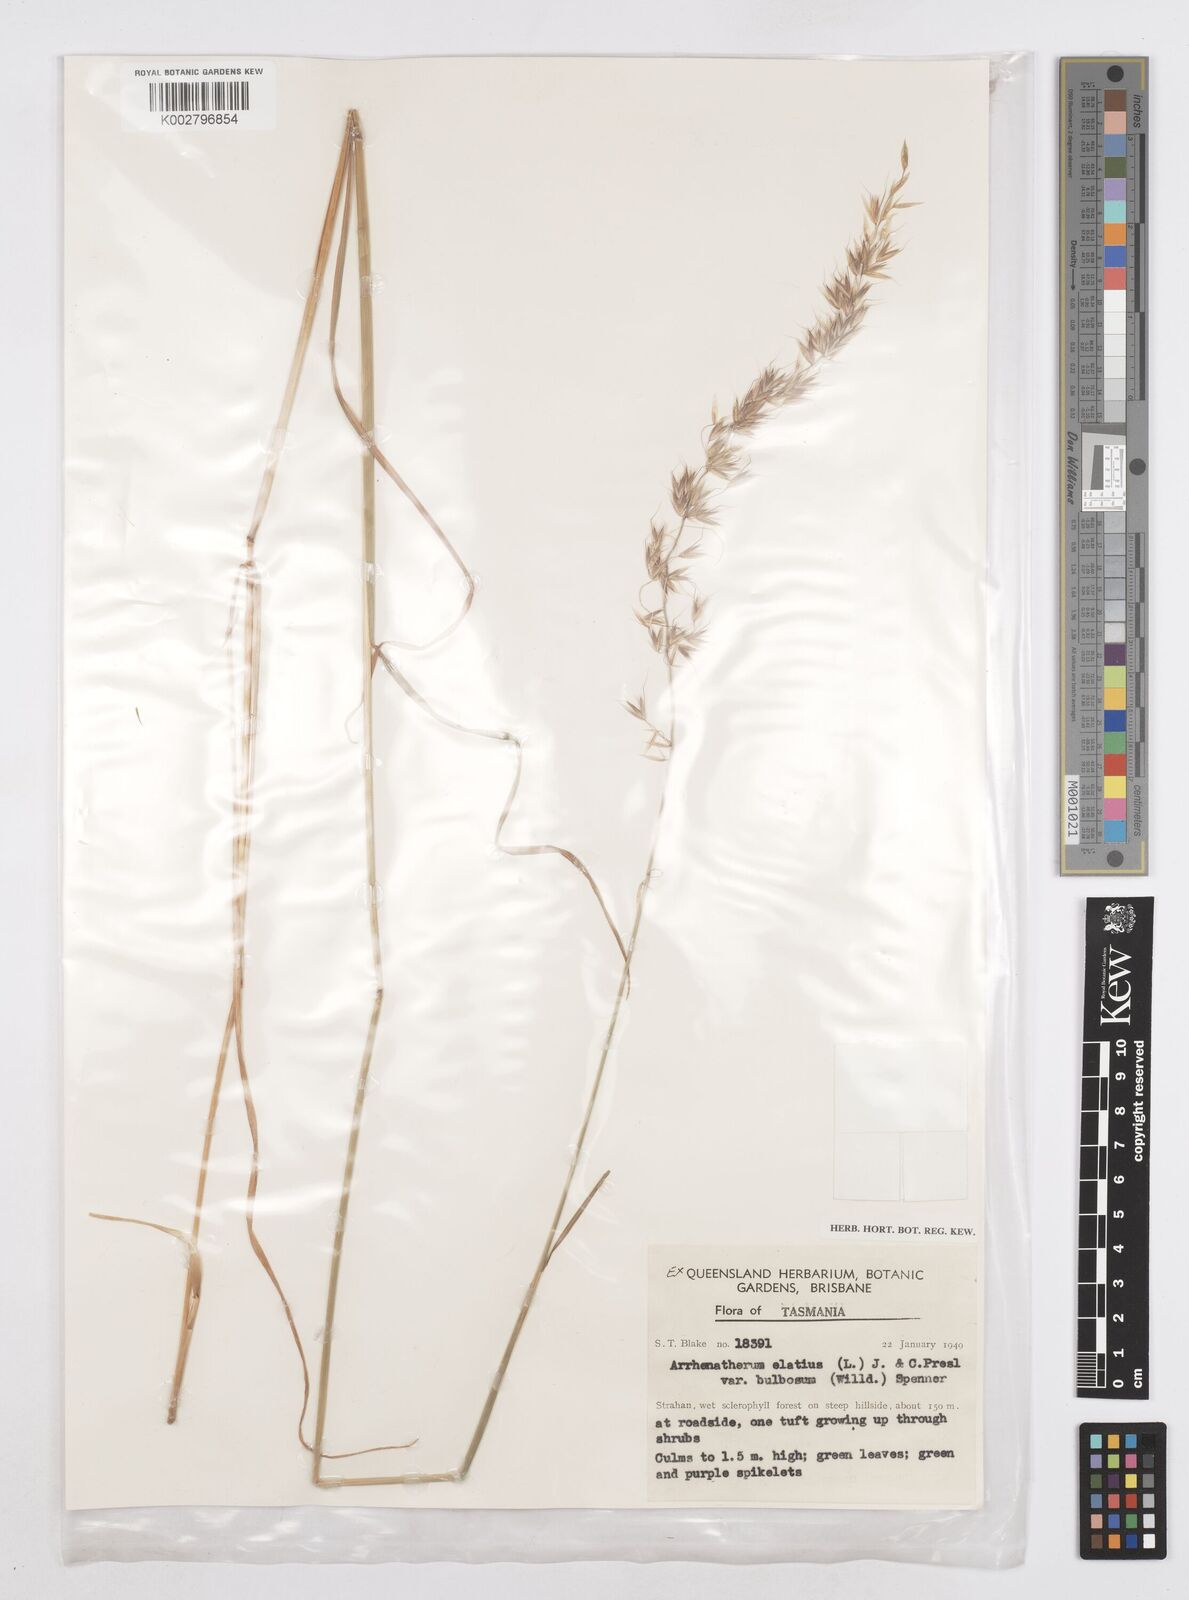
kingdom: Plantae
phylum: Tracheophyta
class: Liliopsida
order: Poales
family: Poaceae
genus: Arrhenatherum
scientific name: Arrhenatherum elatius
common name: Tall oatgrass
